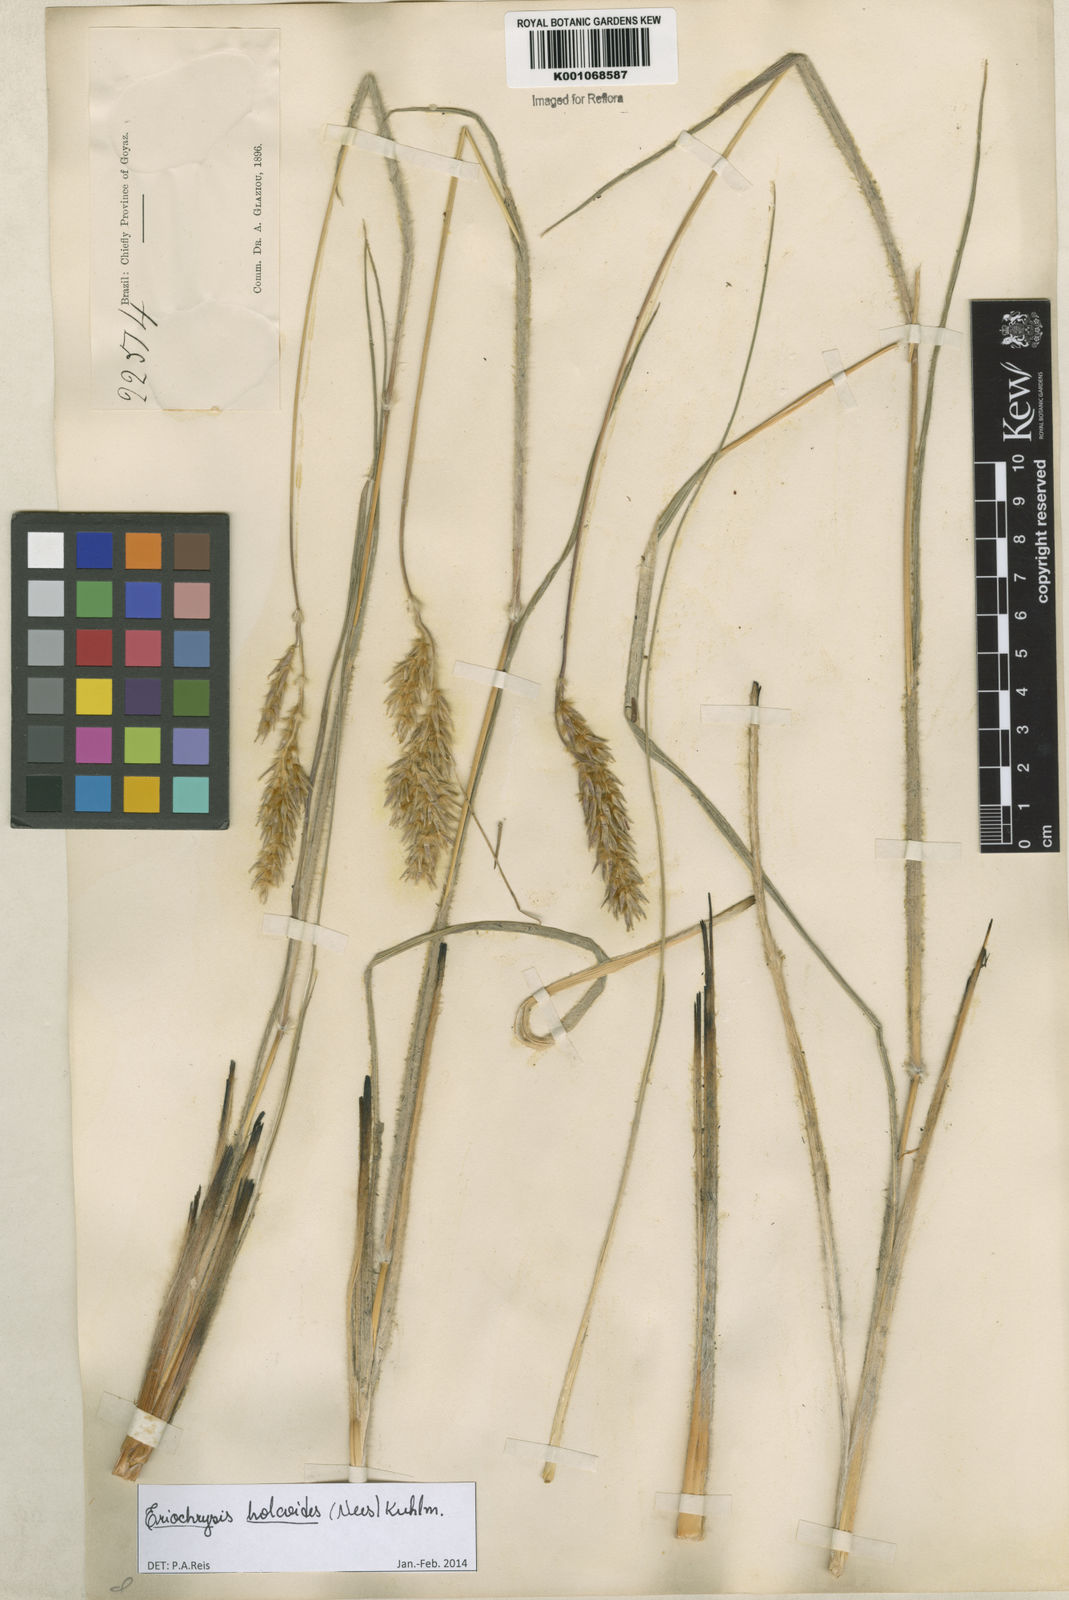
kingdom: Plantae
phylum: Tracheophyta
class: Liliopsida
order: Poales
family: Poaceae
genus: Eriochrysis
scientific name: Eriochrysis holcoides
